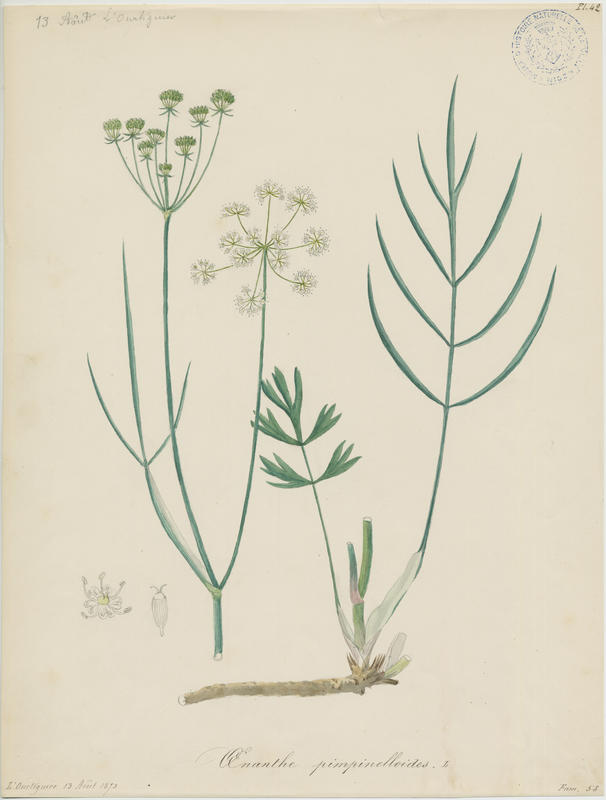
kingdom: Plantae
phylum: Tracheophyta
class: Magnoliopsida
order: Apiales
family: Apiaceae
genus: Oenanthe
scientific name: Oenanthe pimpinelloides
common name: Corky-fruited water-dropwort
